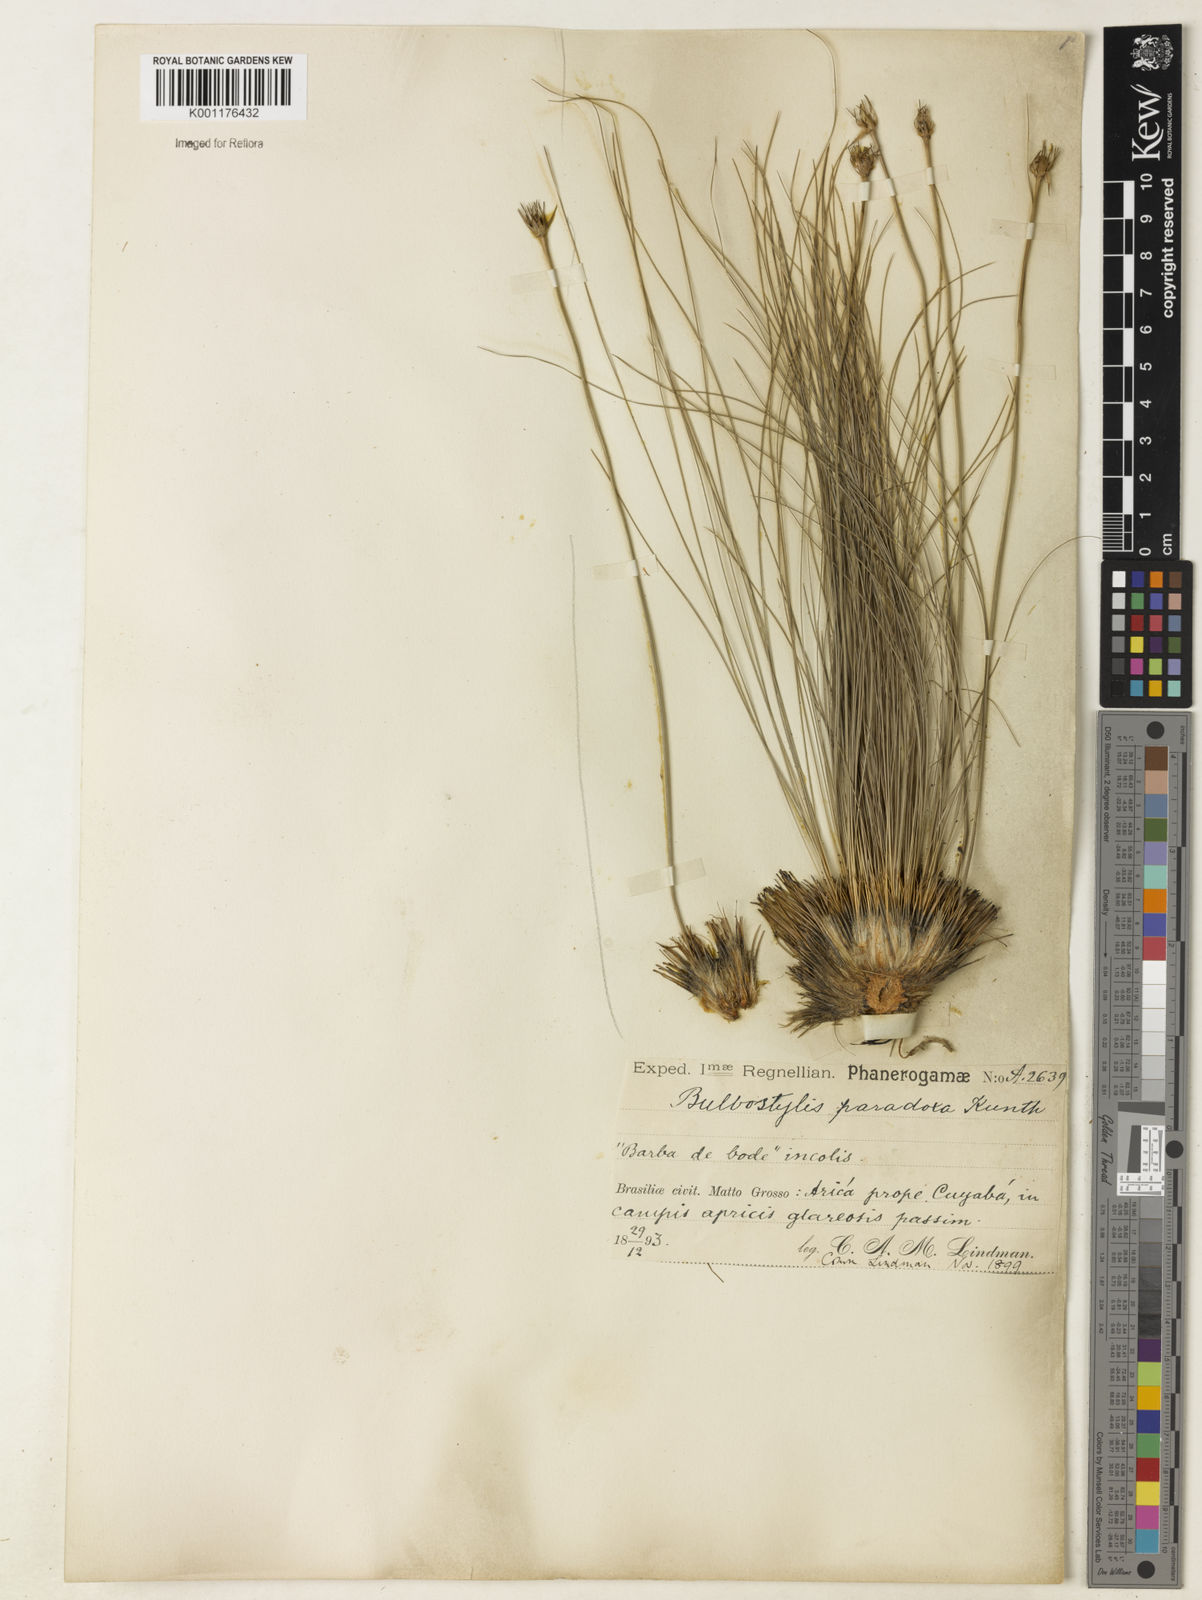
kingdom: Plantae
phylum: Tracheophyta
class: Liliopsida
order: Poales
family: Cyperaceae
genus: Bulbostylis
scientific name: Bulbostylis paradoxa
